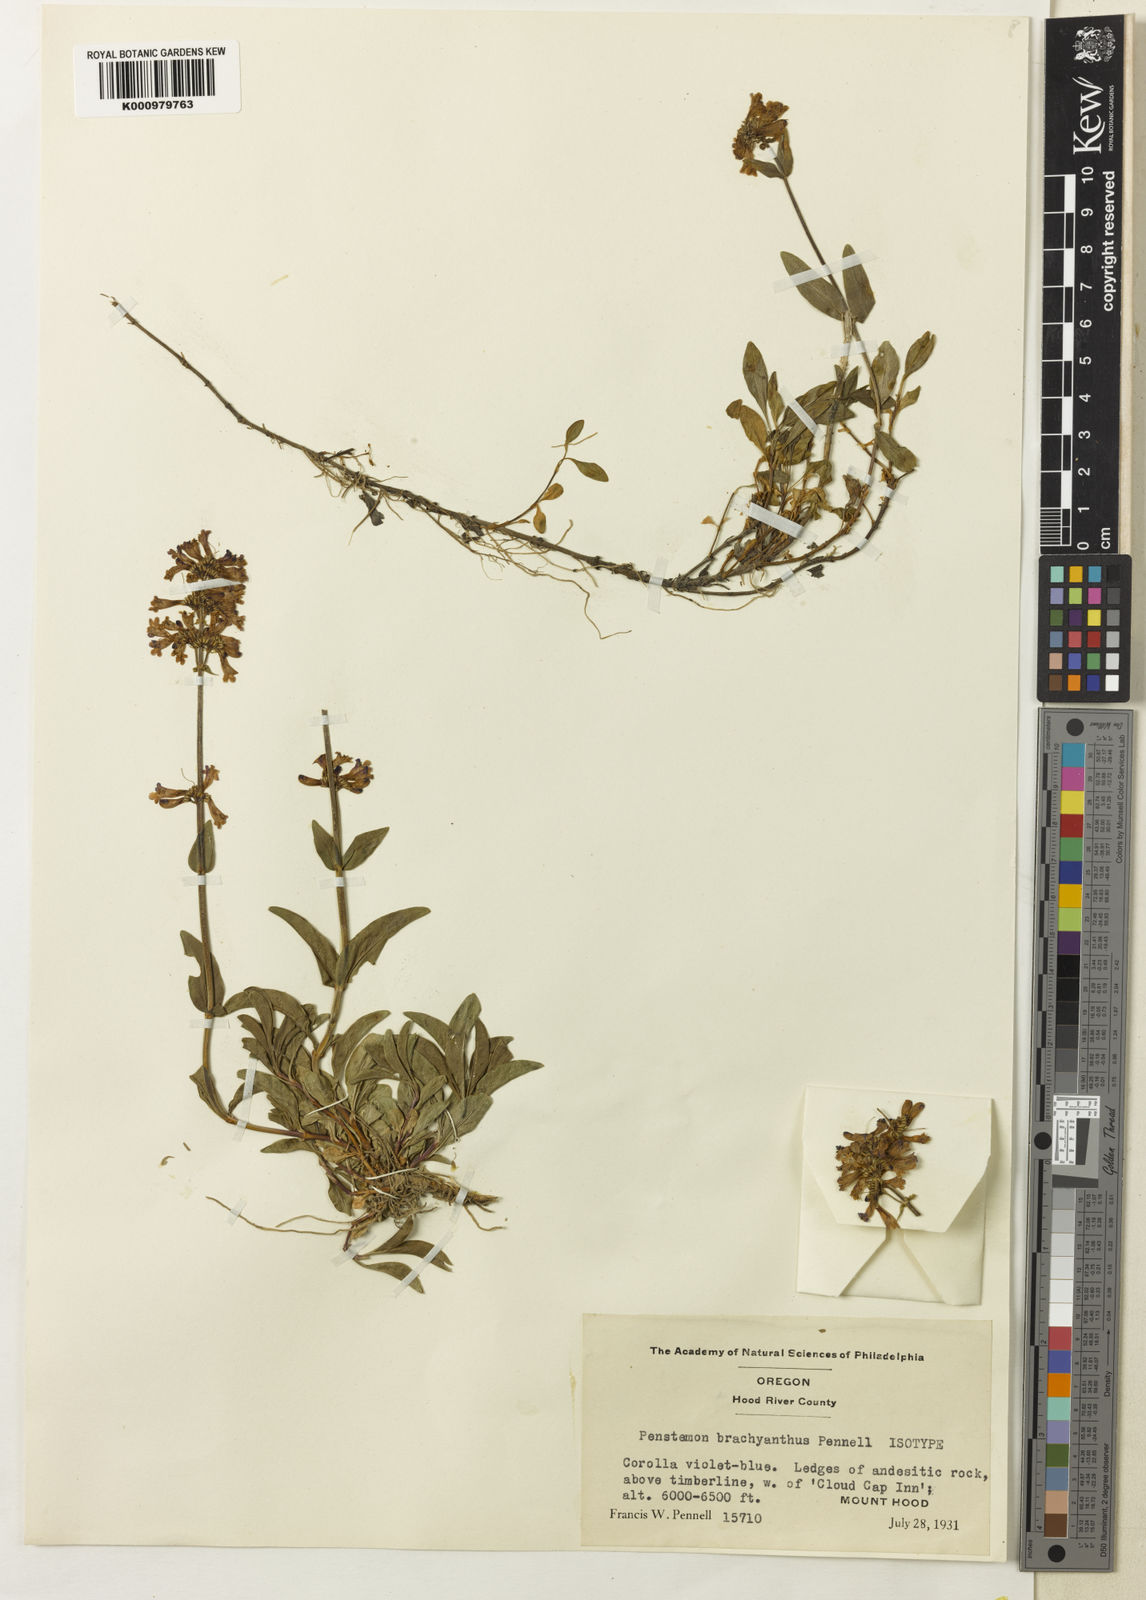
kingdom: Plantae
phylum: Tracheophyta
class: Magnoliopsida
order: Lamiales
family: Plantaginaceae
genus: Penstemon
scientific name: Penstemon procerus
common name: Small-flower penstemon
